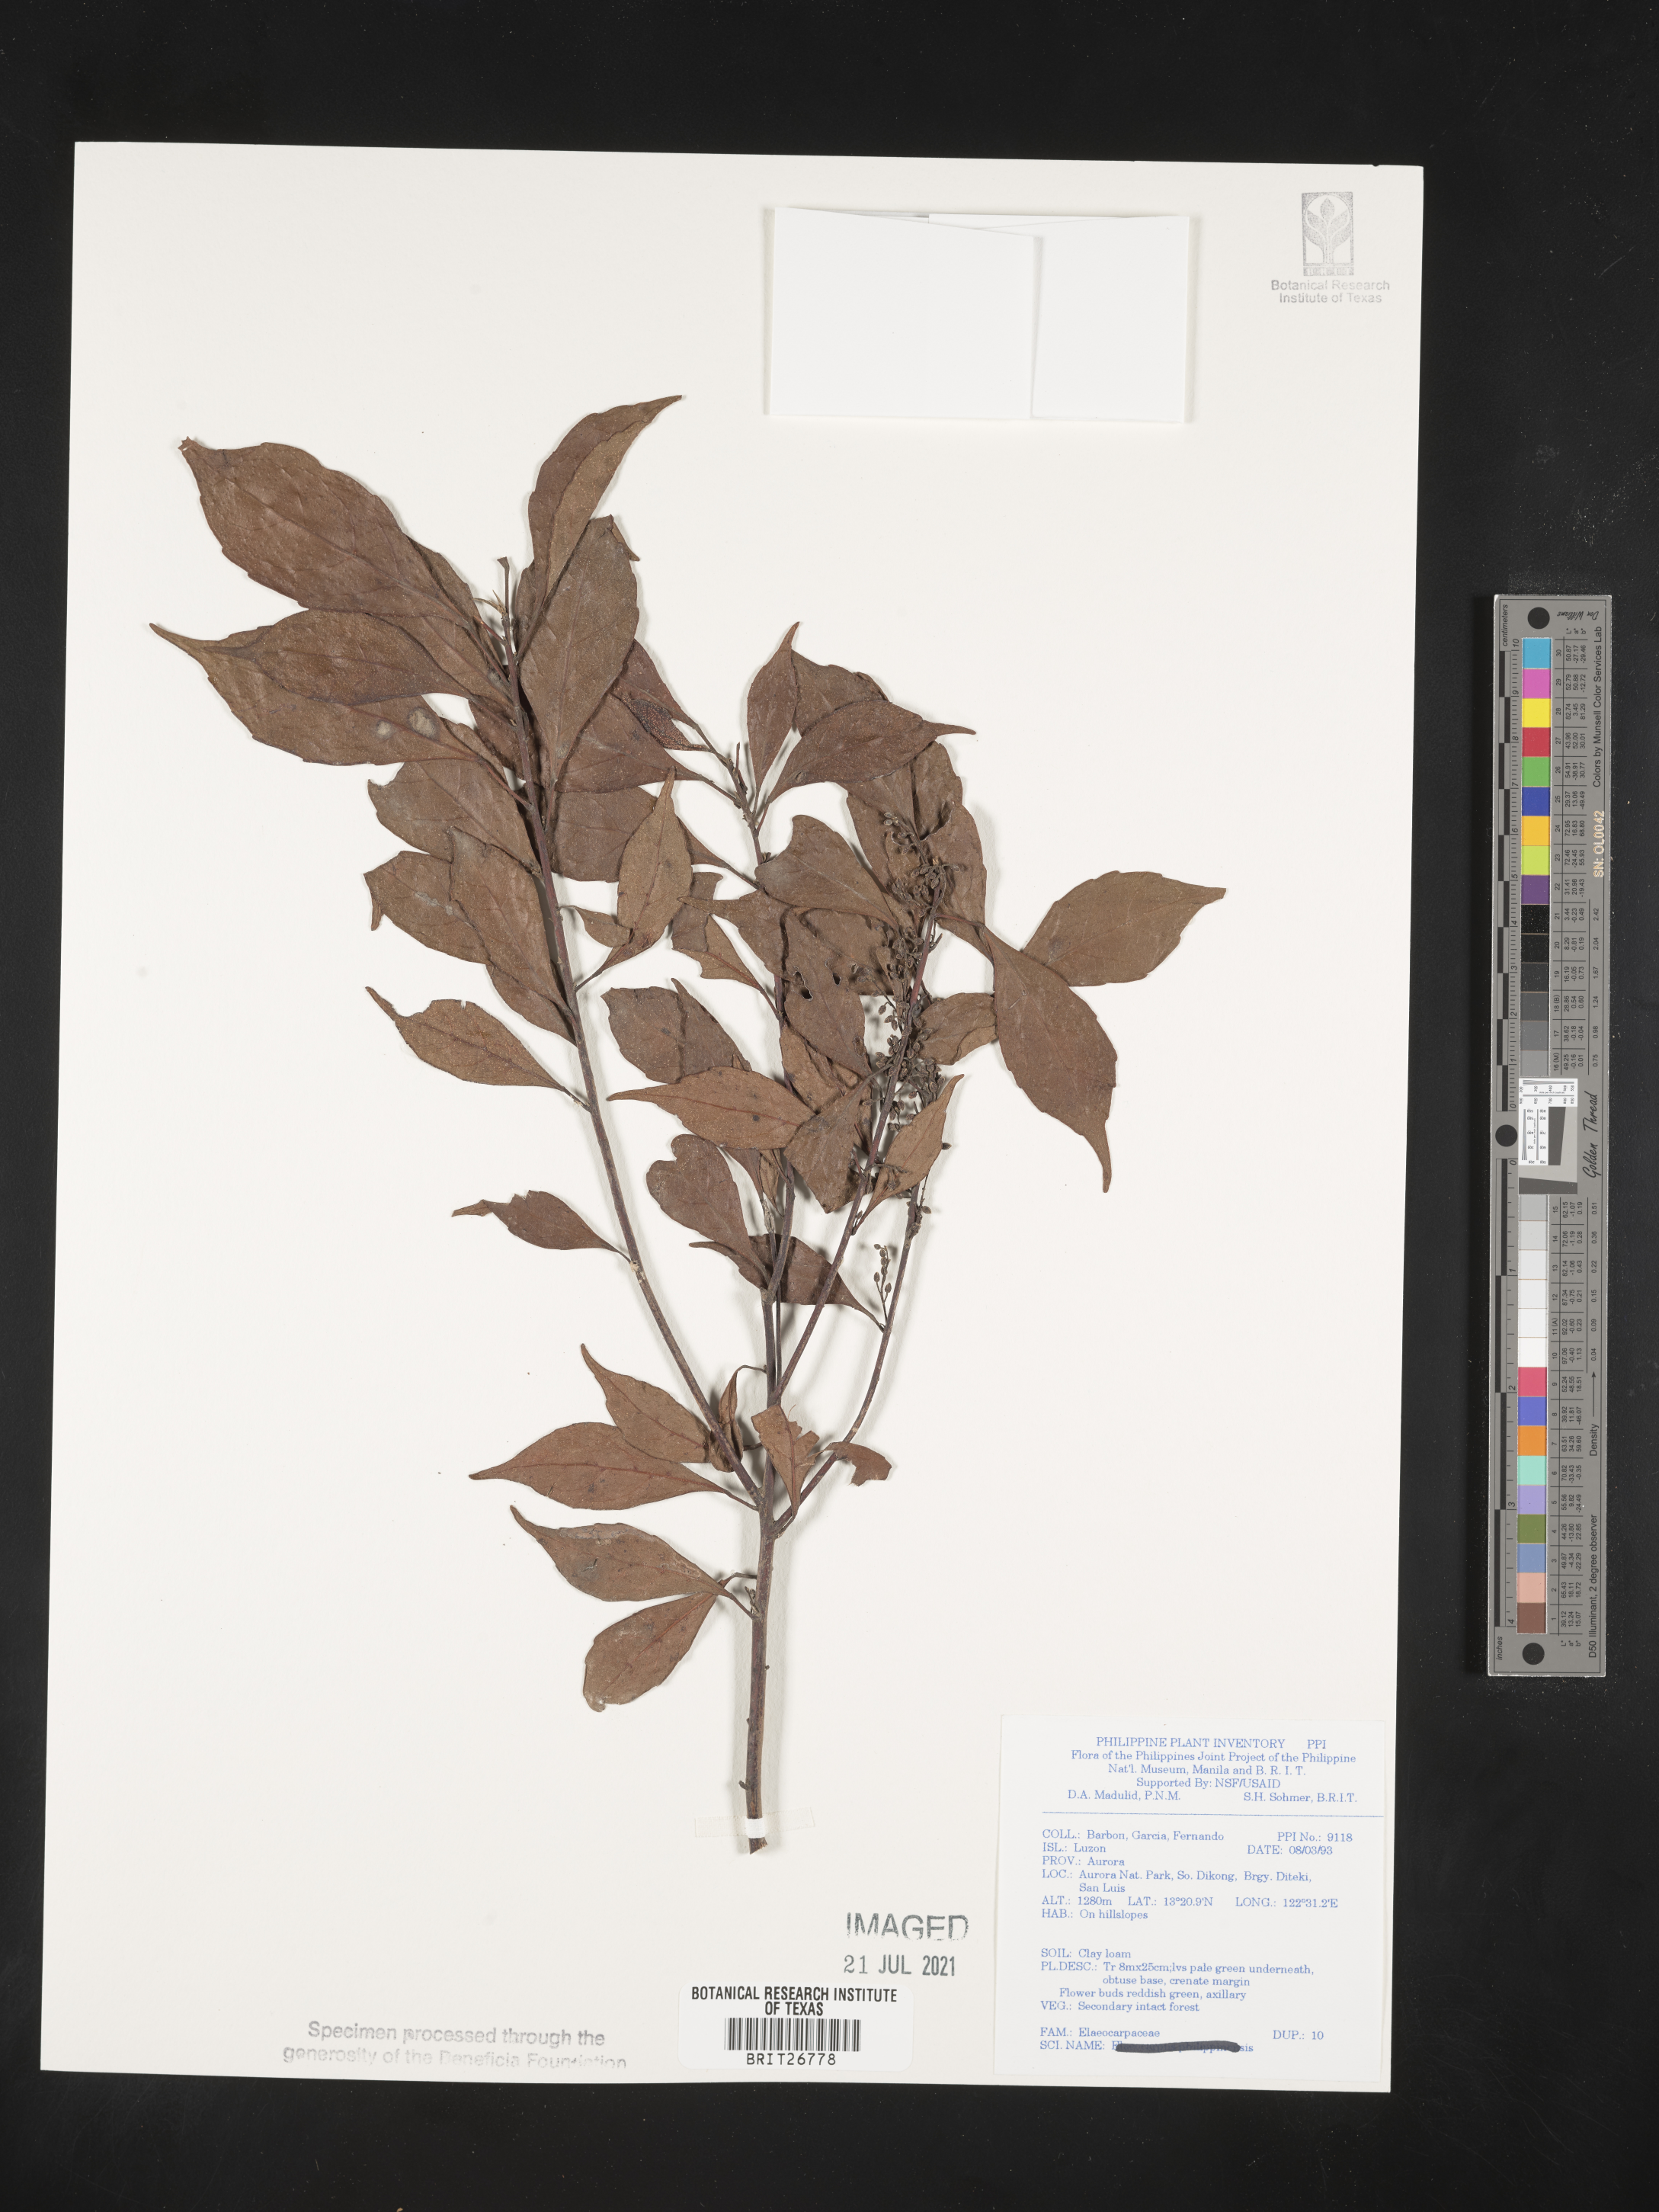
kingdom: Plantae
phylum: Tracheophyta
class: Magnoliopsida
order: Oxalidales
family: Elaeocarpaceae
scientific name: Elaeocarpaceae
